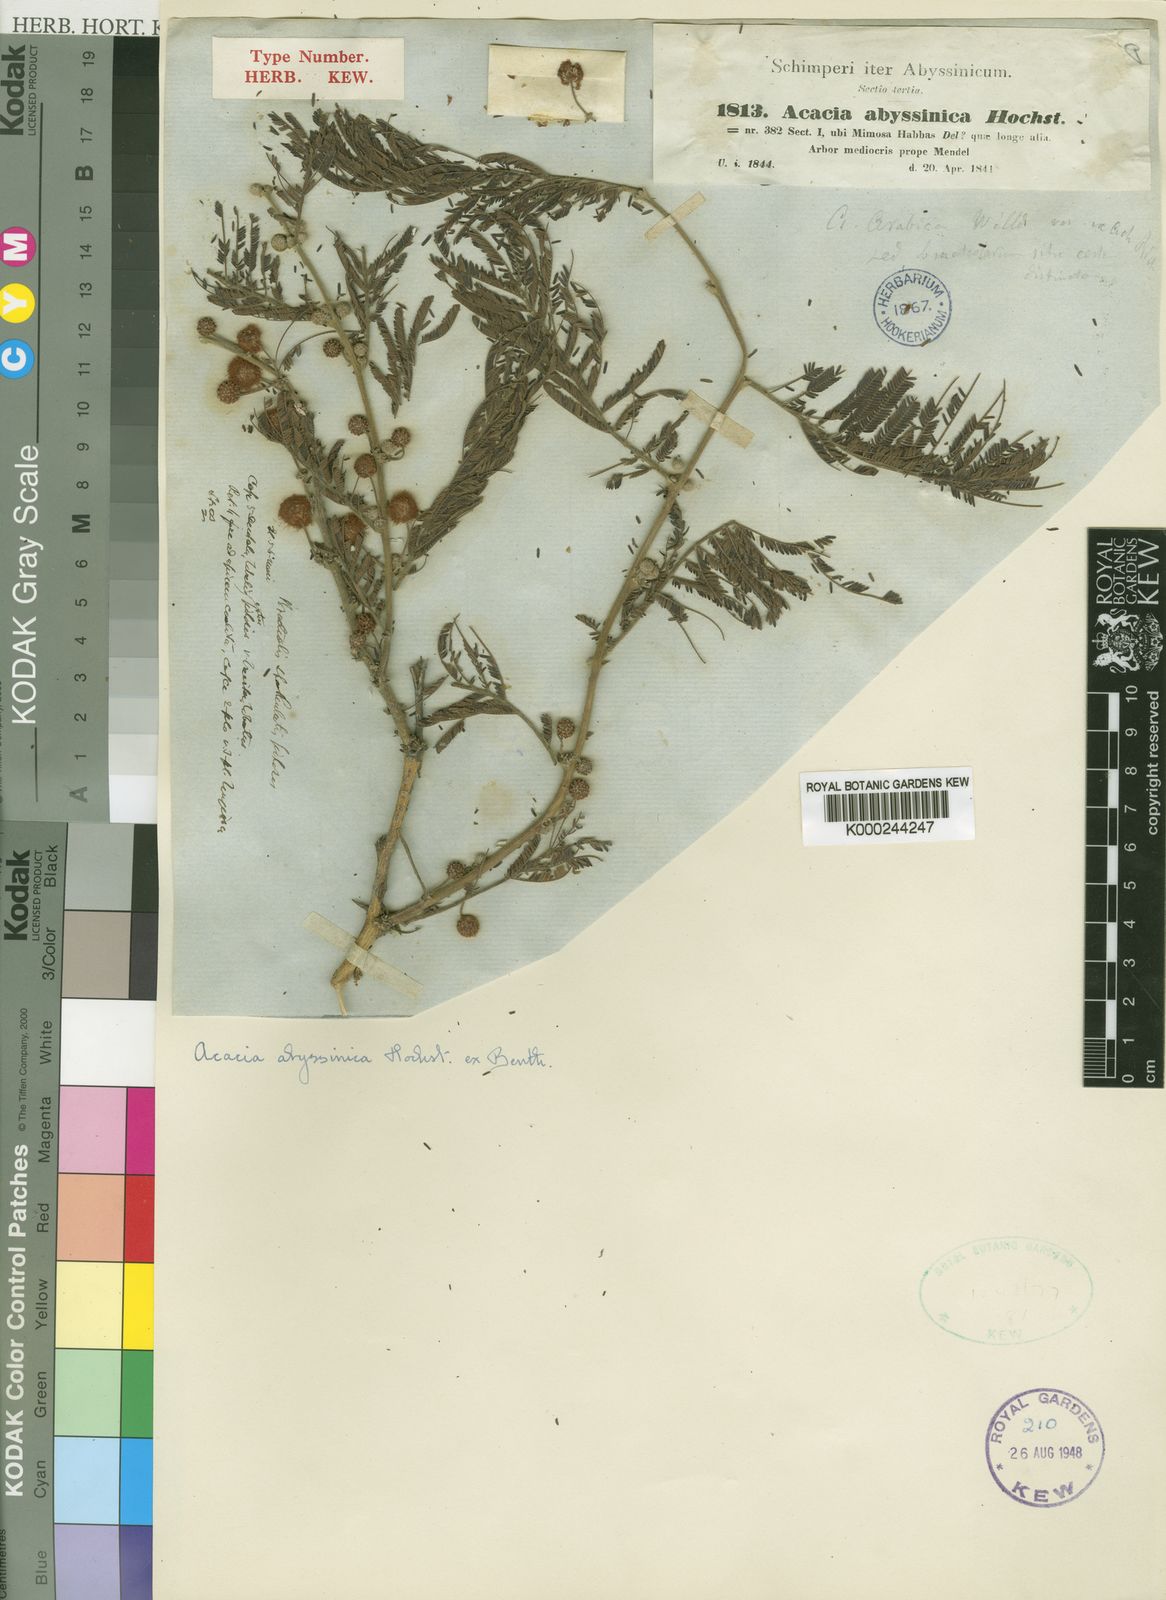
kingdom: Plantae
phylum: Tracheophyta
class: Magnoliopsida
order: Fabales
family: Fabaceae
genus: Vachellia
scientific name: Vachellia abyssinica
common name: Nyanga flat-top
